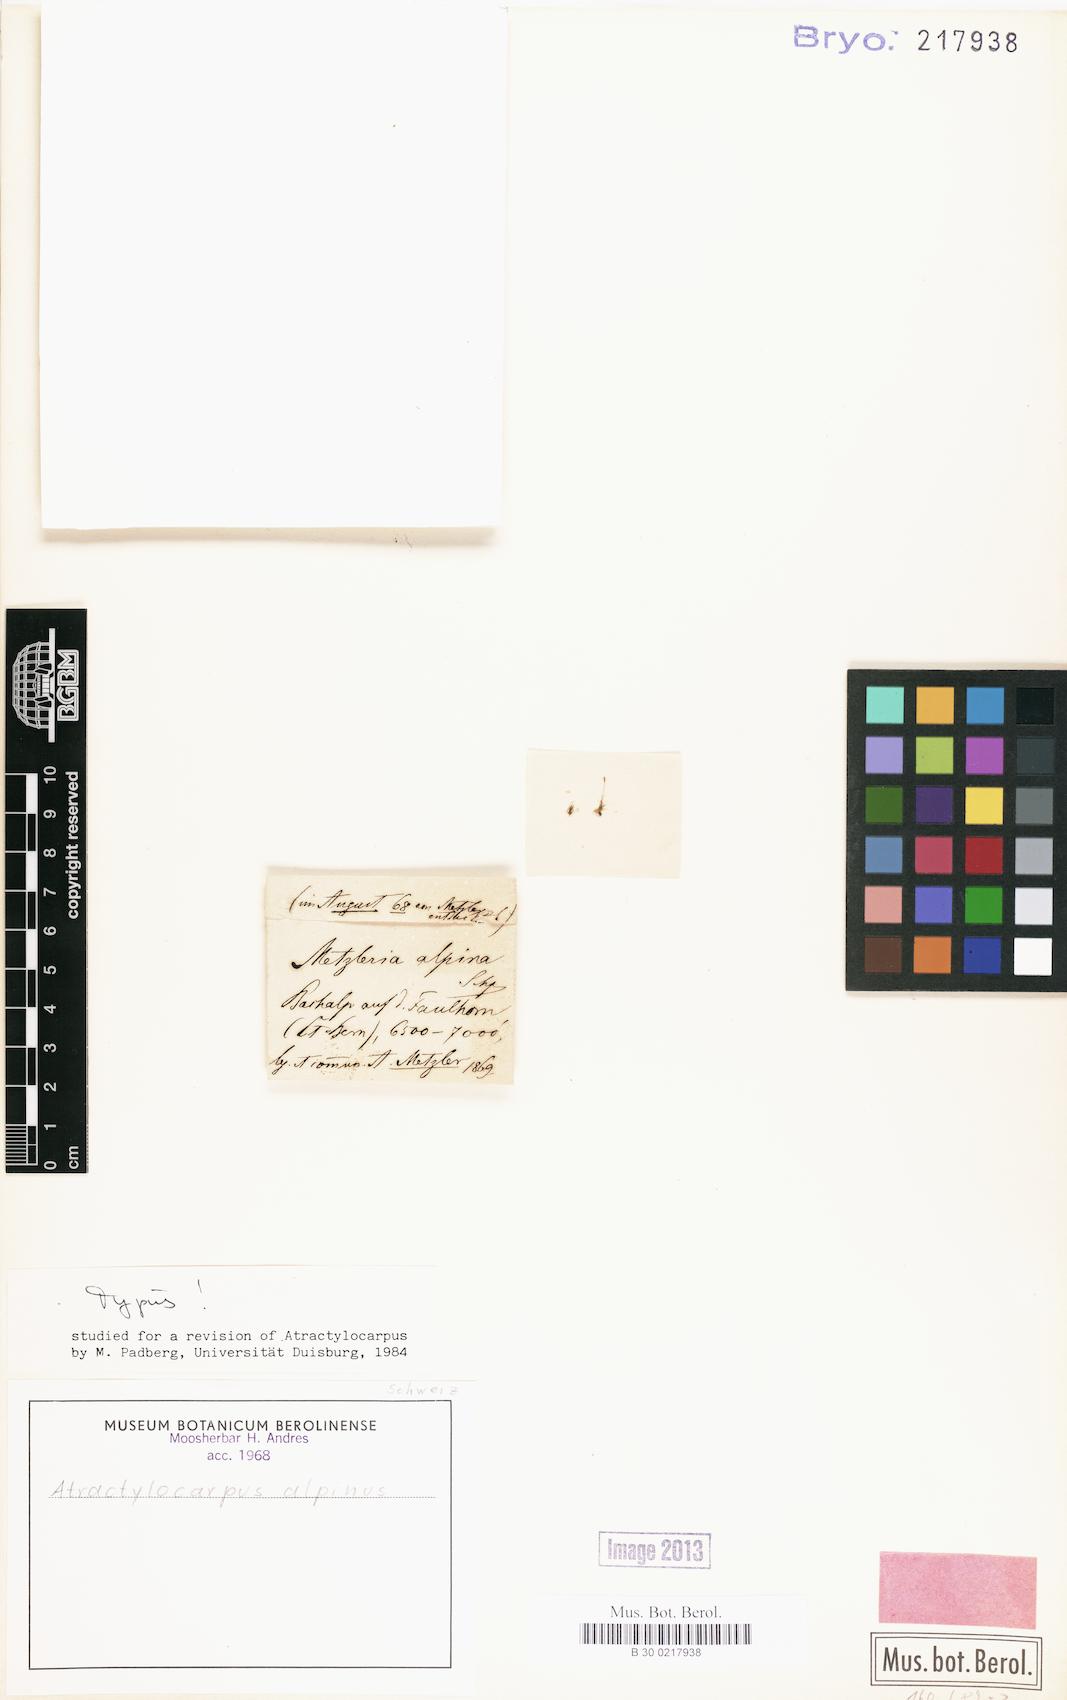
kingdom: Plantae
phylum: Bryophyta
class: Bryopsida
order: Dicranales
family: Leucobryaceae
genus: Atractylocarpus
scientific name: Atractylocarpus alpinus
